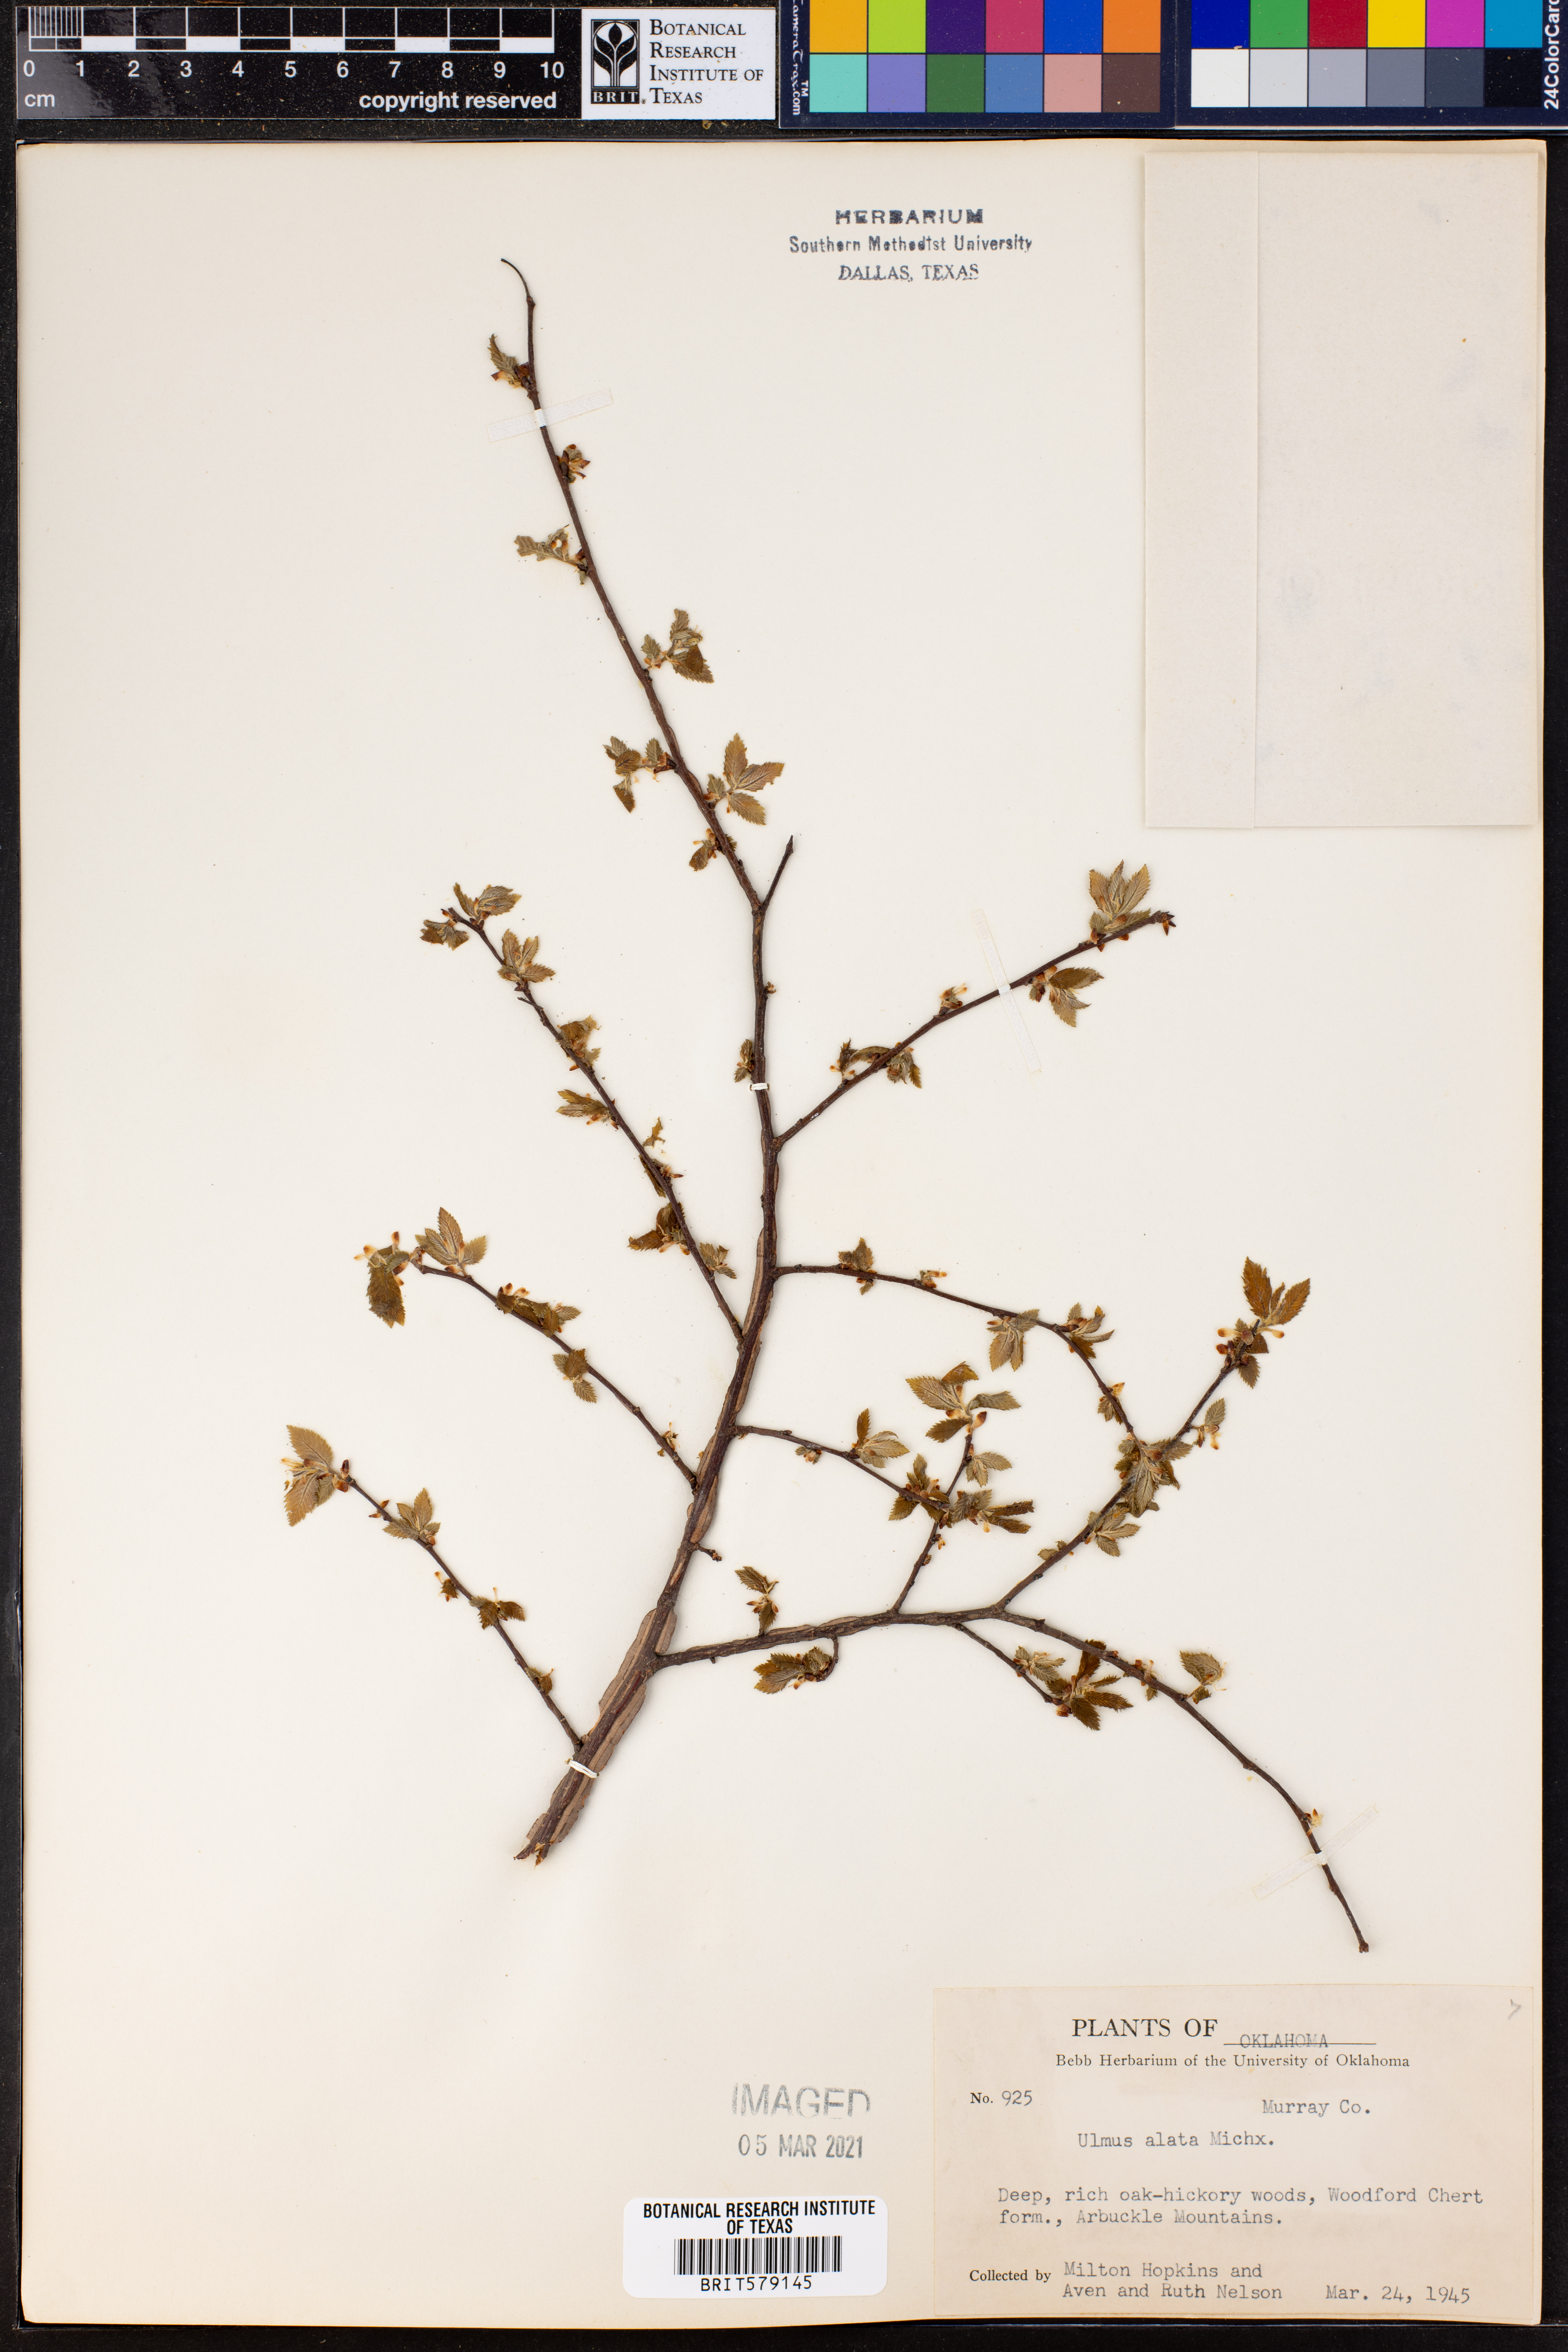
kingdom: Plantae
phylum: Tracheophyta
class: Magnoliopsida
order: Rosales
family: Ulmaceae
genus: Ulmus
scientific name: Ulmus alata
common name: Winged elm
